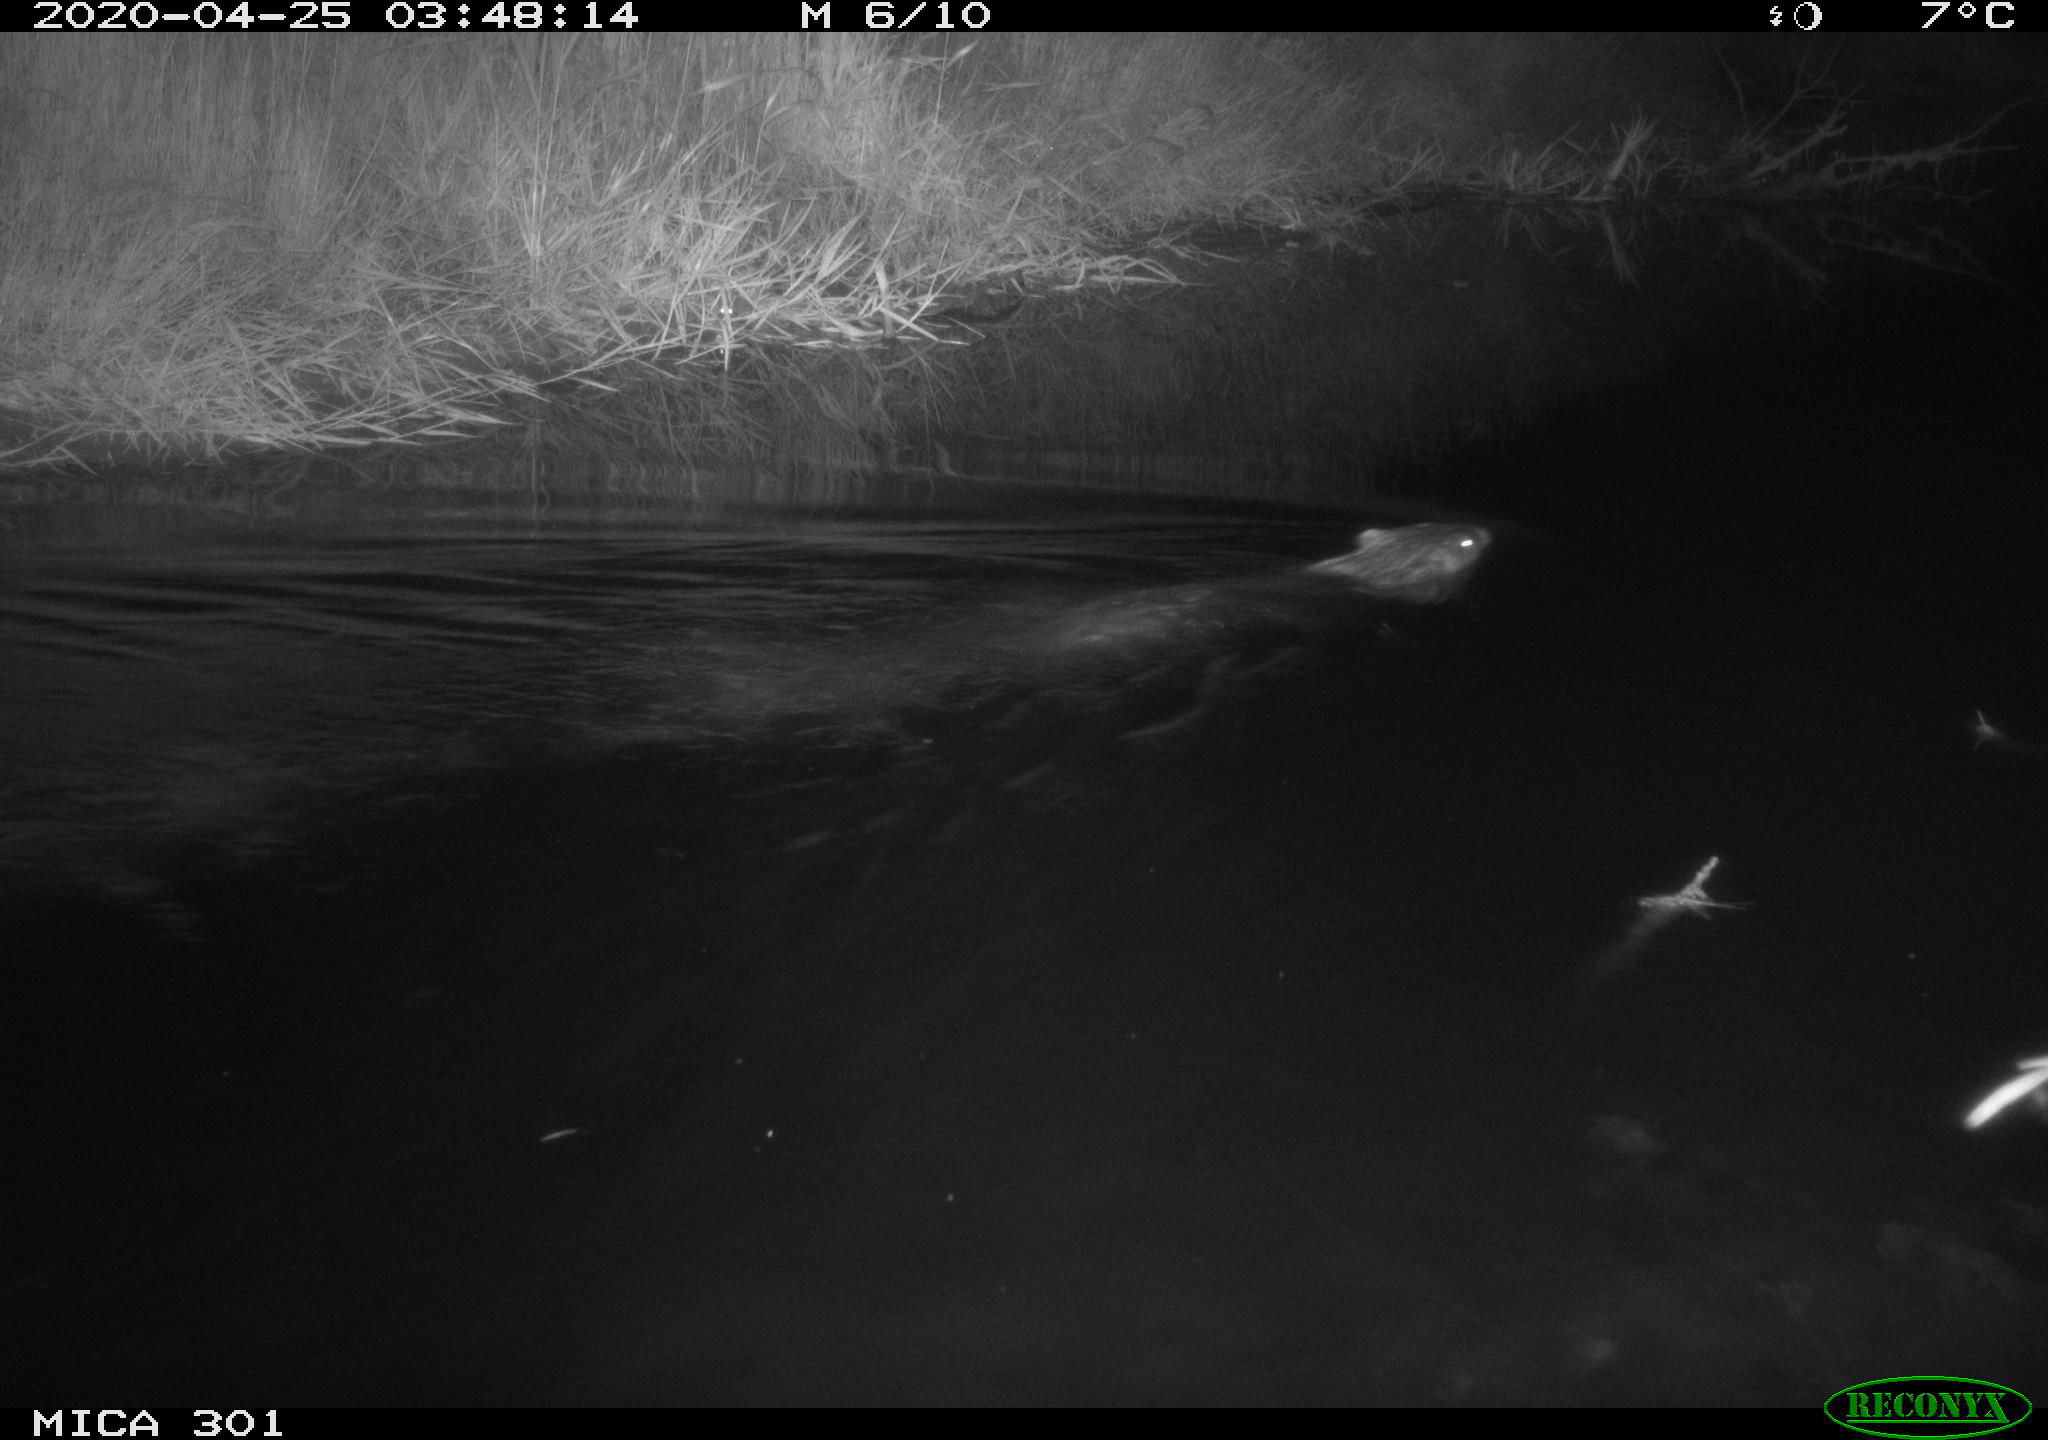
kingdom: Animalia
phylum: Chordata
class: Mammalia
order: Rodentia
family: Castoridae
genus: Castor
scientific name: Castor fiber
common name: Eurasian beaver
